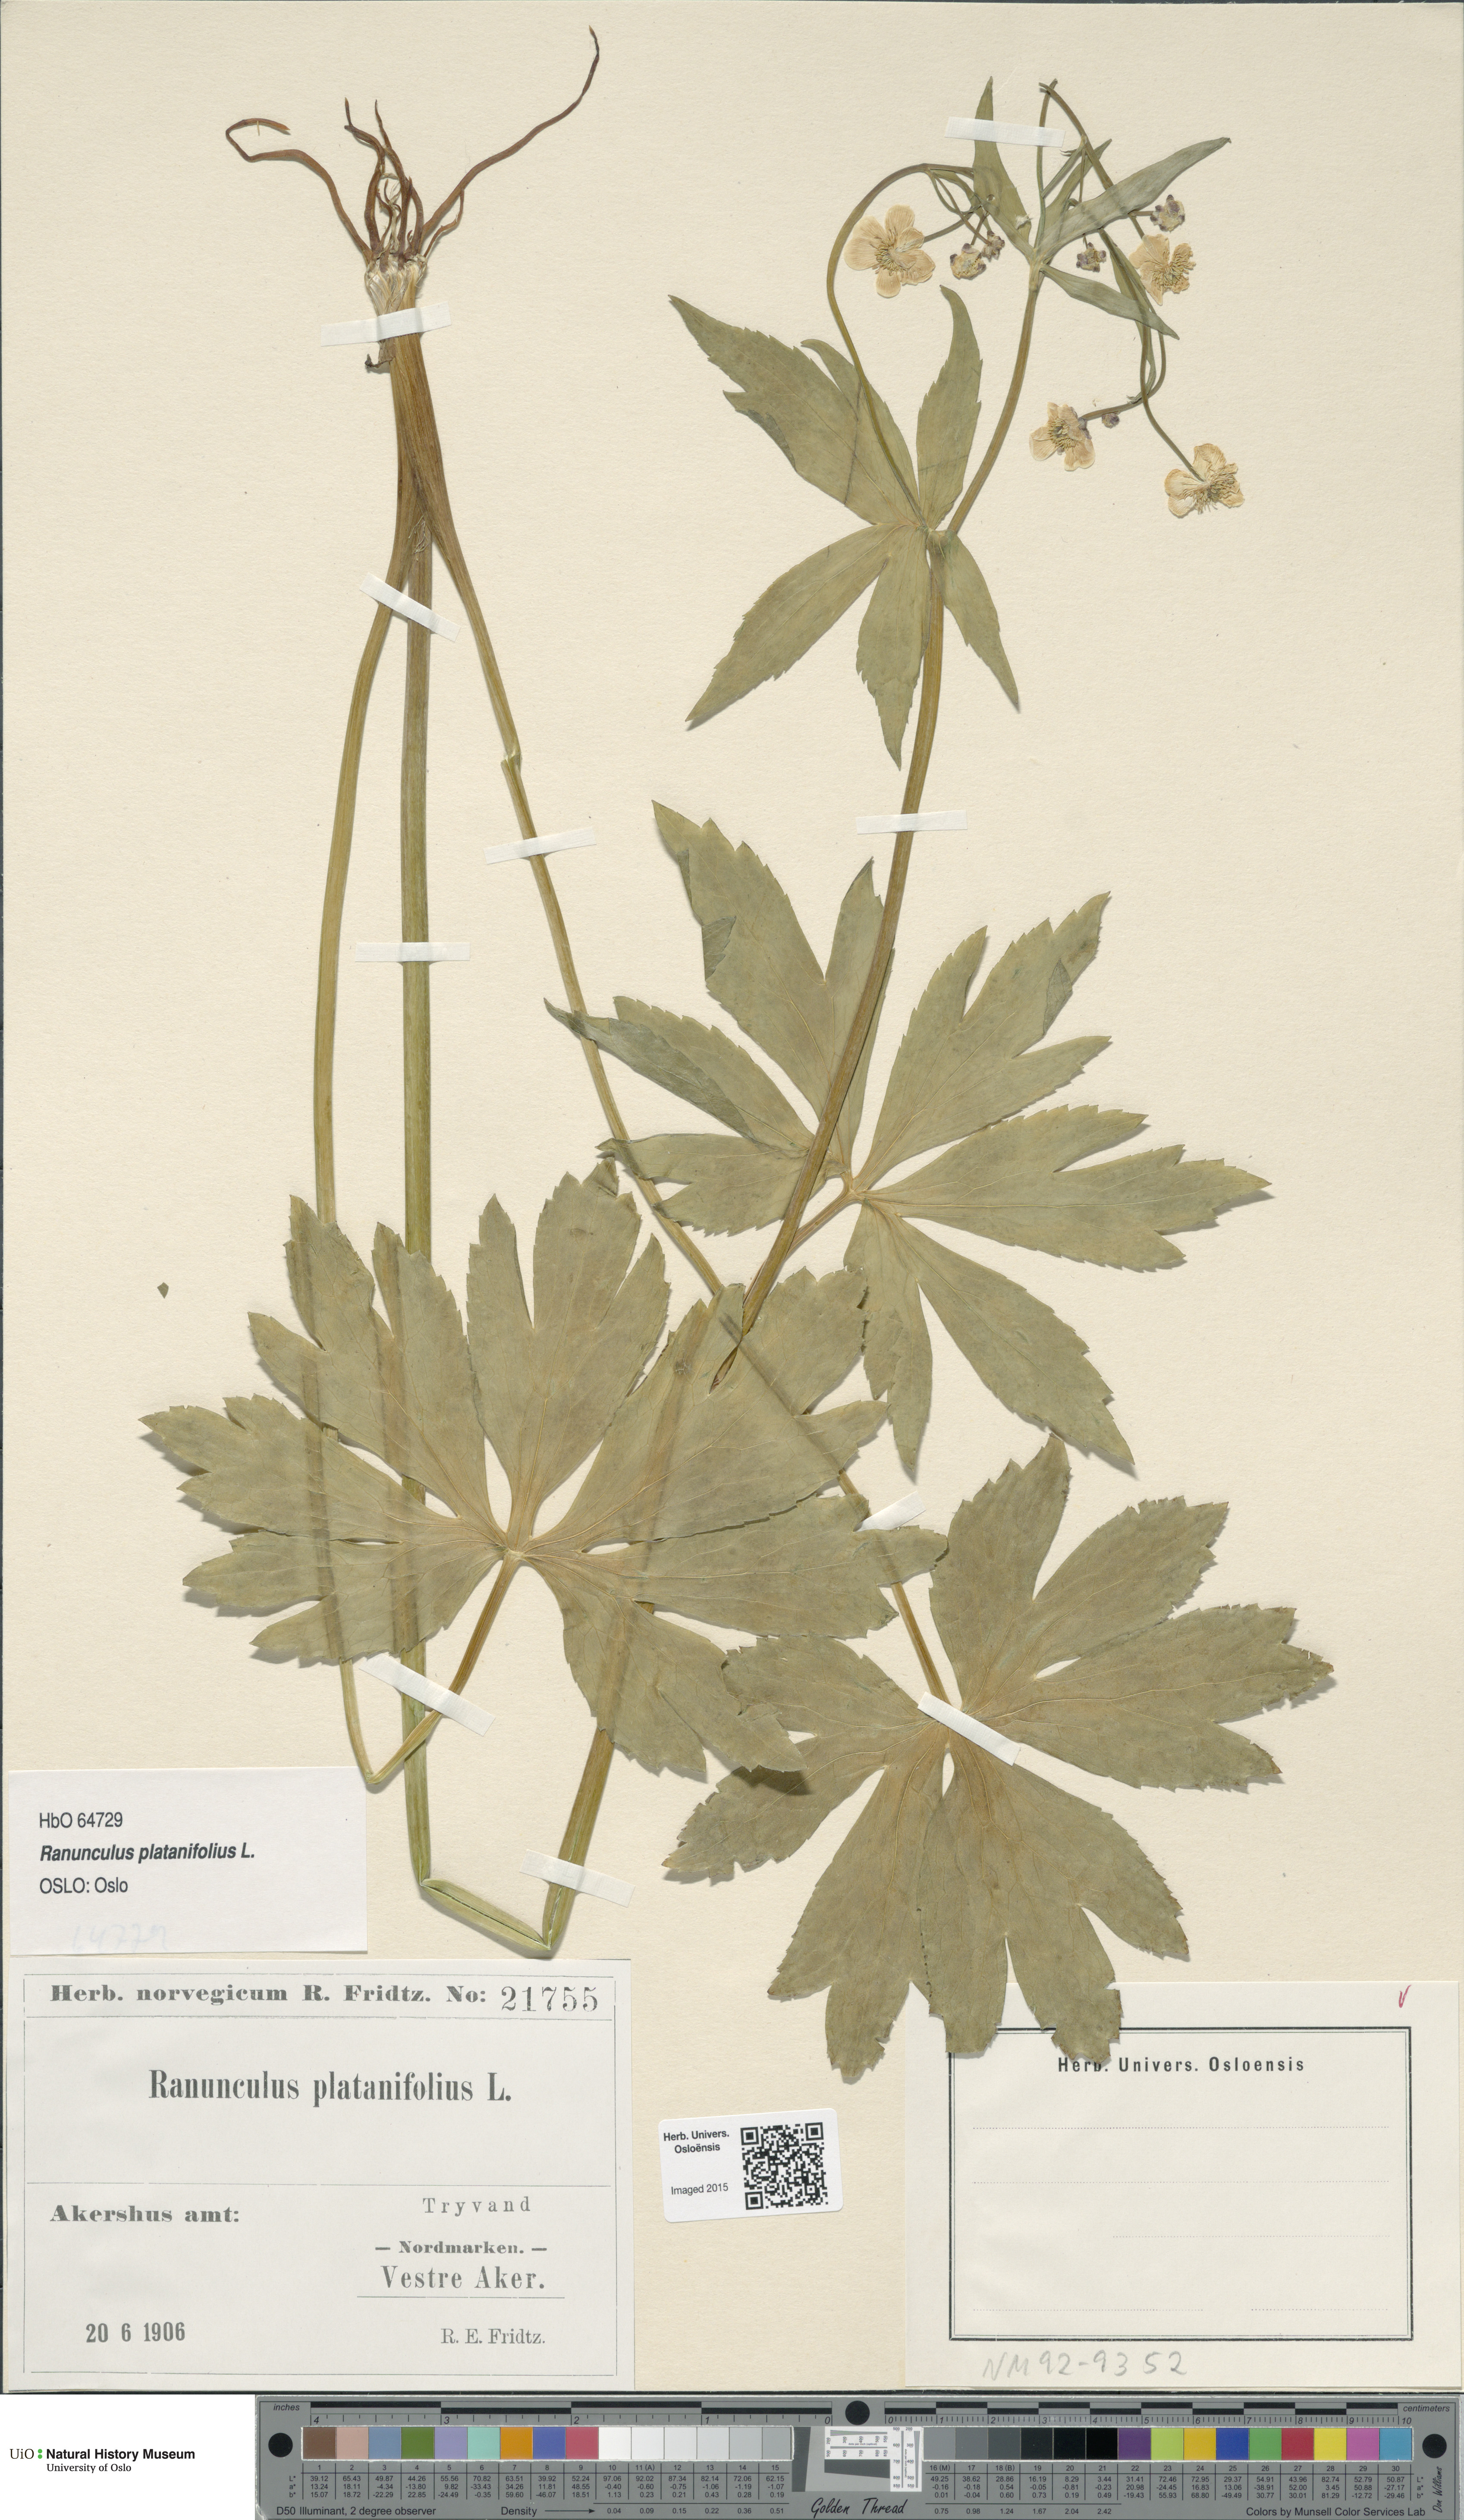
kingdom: Plantae
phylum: Tracheophyta
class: Magnoliopsida
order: Ranunculales
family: Ranunculaceae
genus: Ranunculus
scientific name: Ranunculus platanifolius
